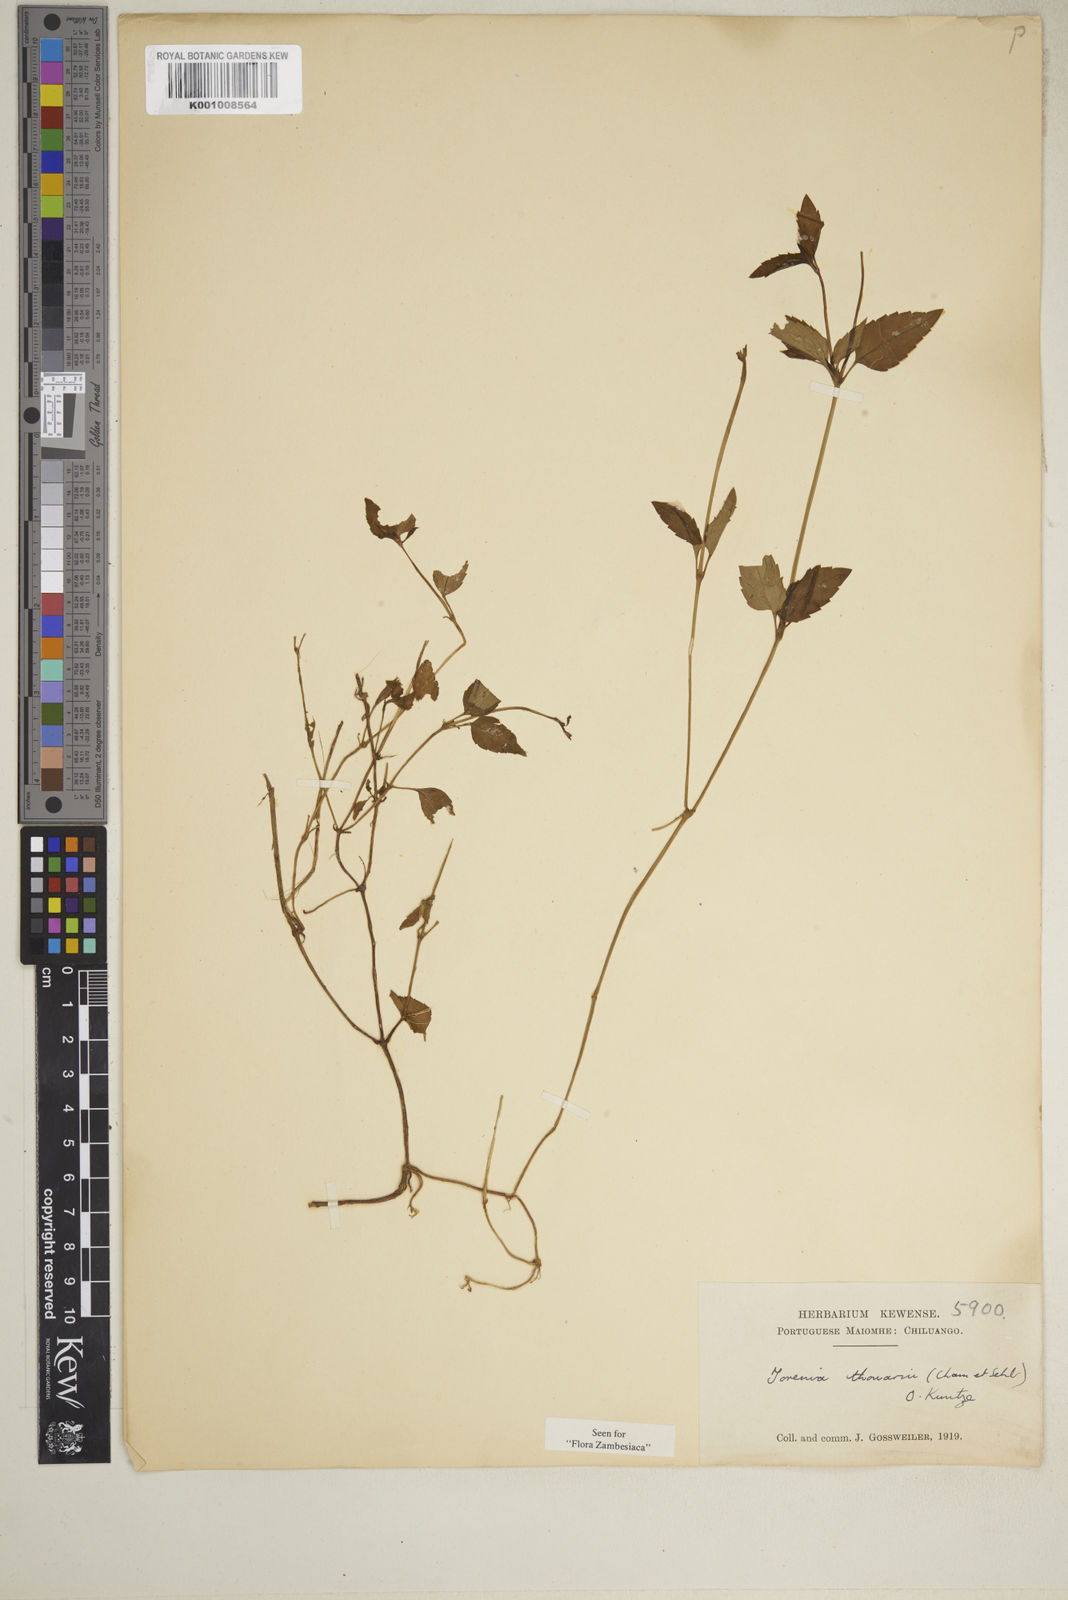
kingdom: Plantae
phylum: Tracheophyta
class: Magnoliopsida
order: Lamiales
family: Linderniaceae
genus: Torenia
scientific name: Torenia thouarsii
